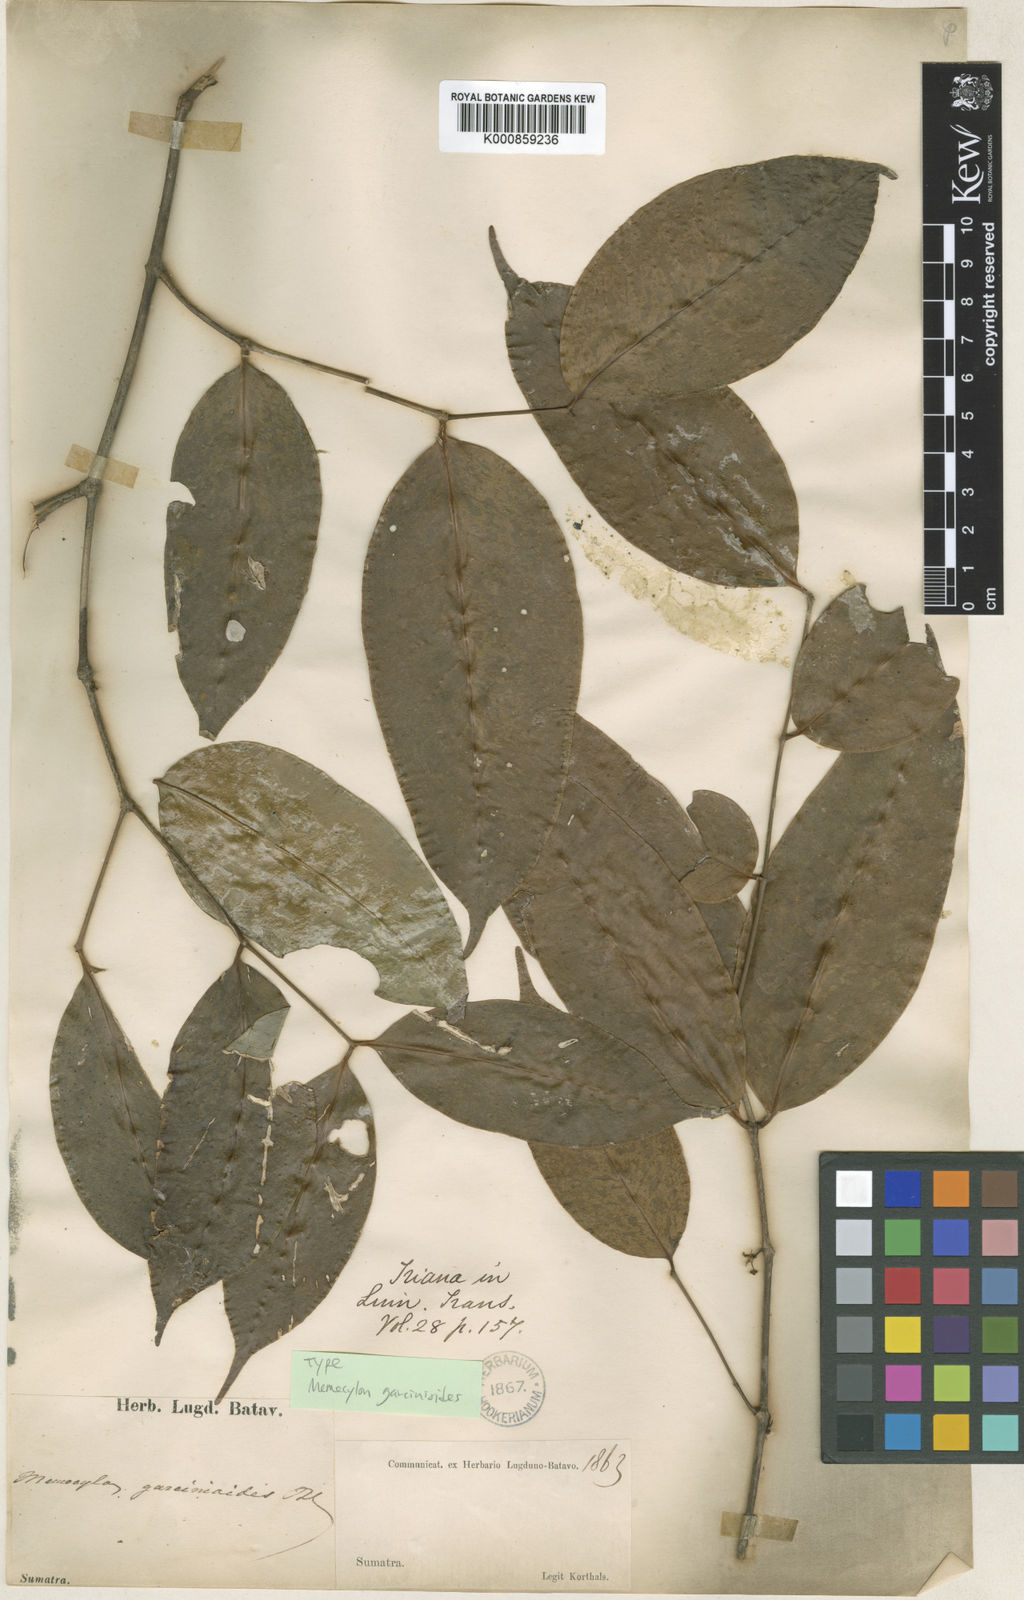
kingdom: Plantae
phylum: Tracheophyta
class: Magnoliopsida
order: Myrtales
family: Melastomataceae
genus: Memecylon
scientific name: Memecylon garcinioides
